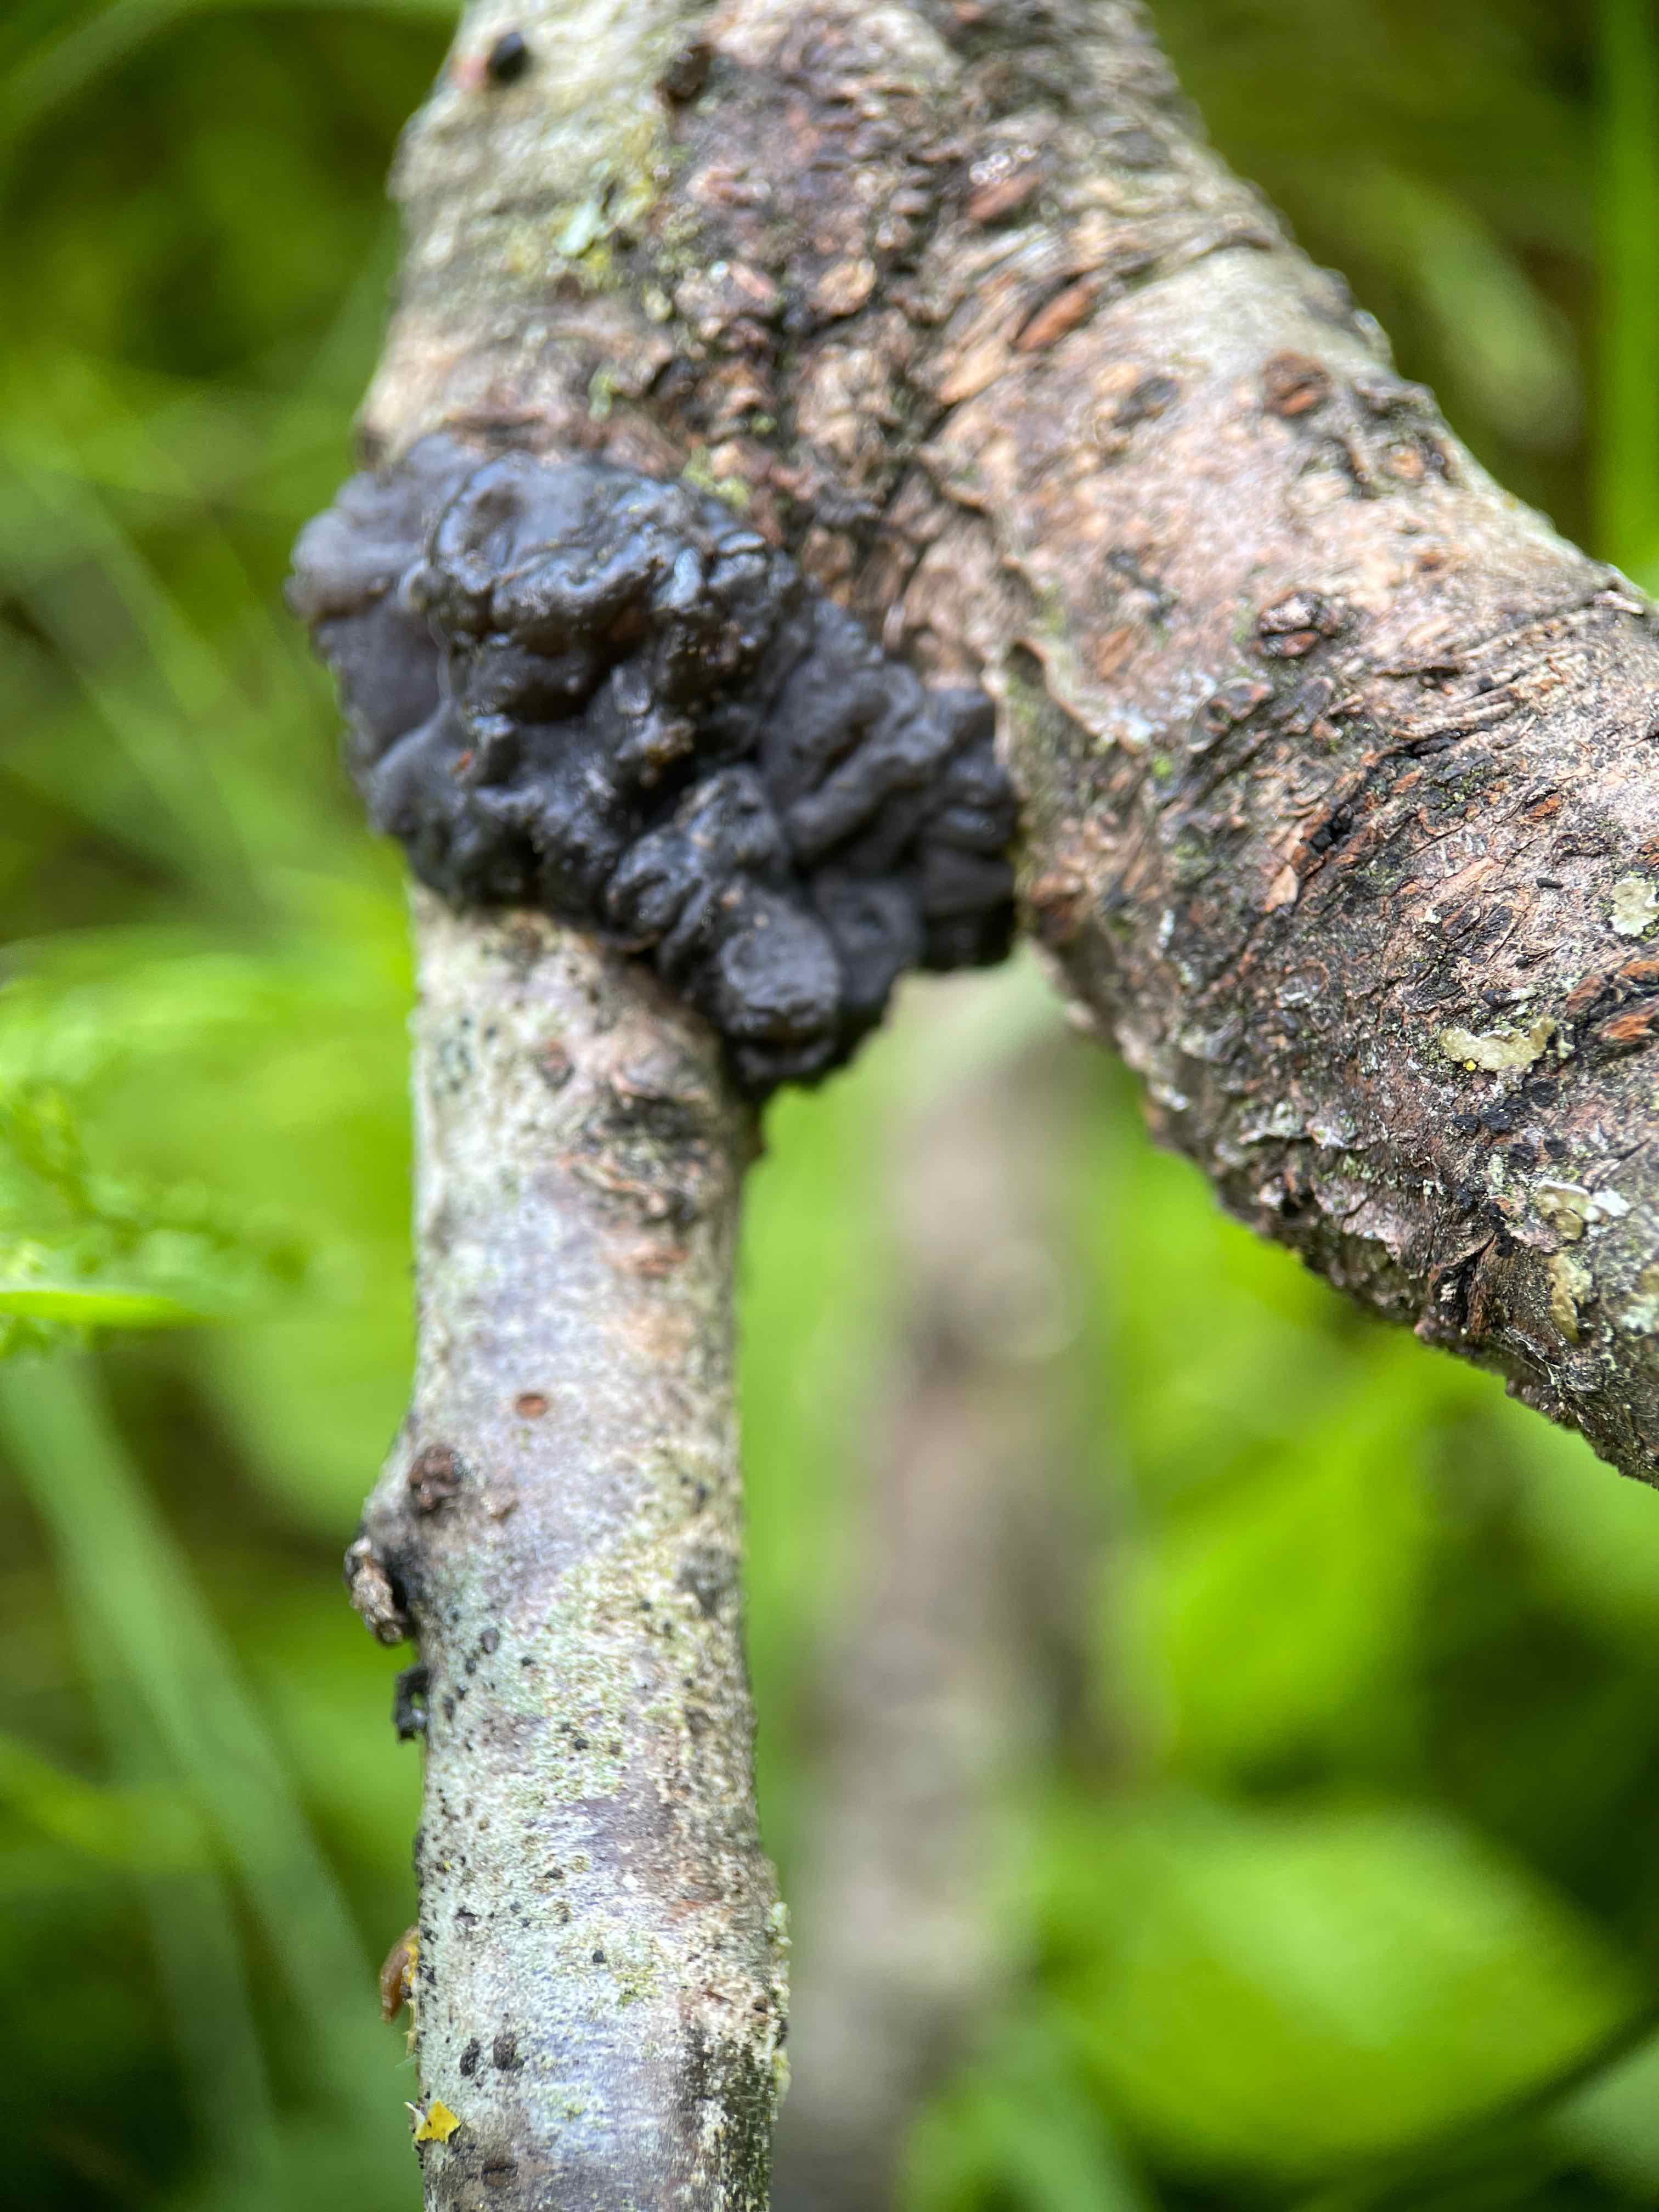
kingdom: Fungi
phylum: Basidiomycota
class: Agaricomycetes
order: Auriculariales
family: Auriculariaceae
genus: Exidia
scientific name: Exidia nigricans
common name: almindelig bævretop
